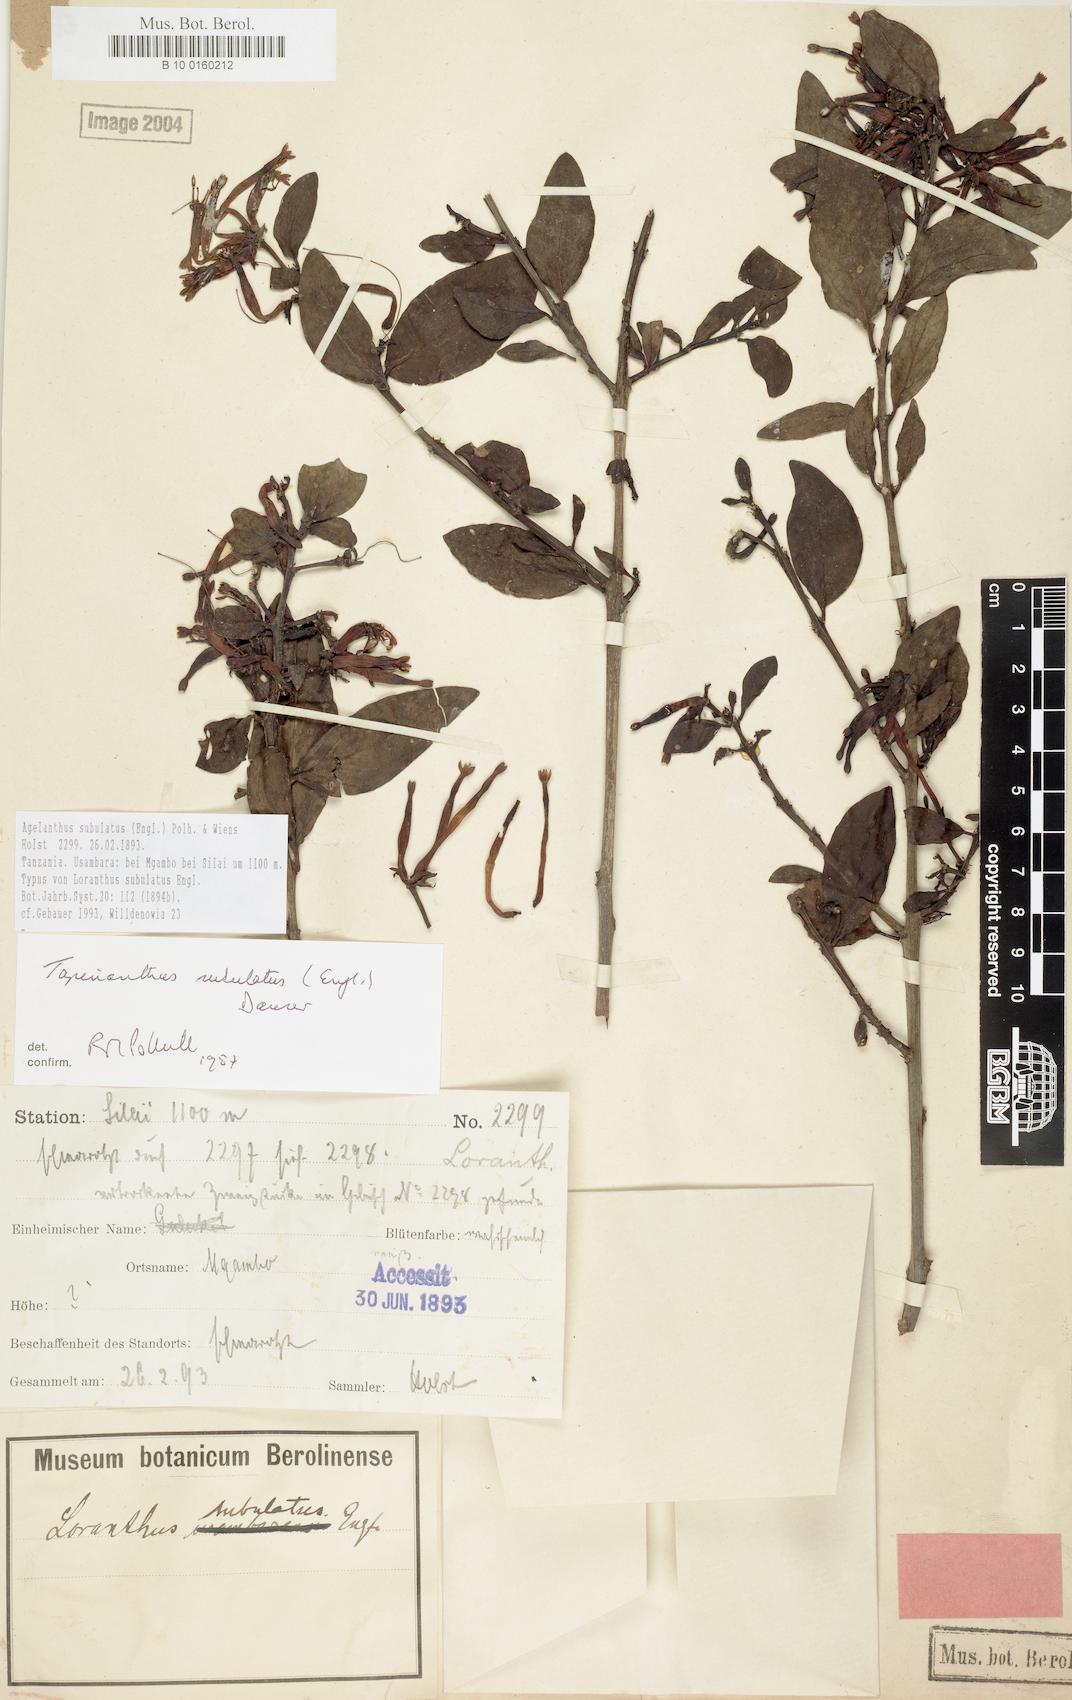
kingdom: Plantae
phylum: Tracheophyta
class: Magnoliopsida
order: Santalales
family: Loranthaceae
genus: Agelanthus
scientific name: Agelanthus subulatus
